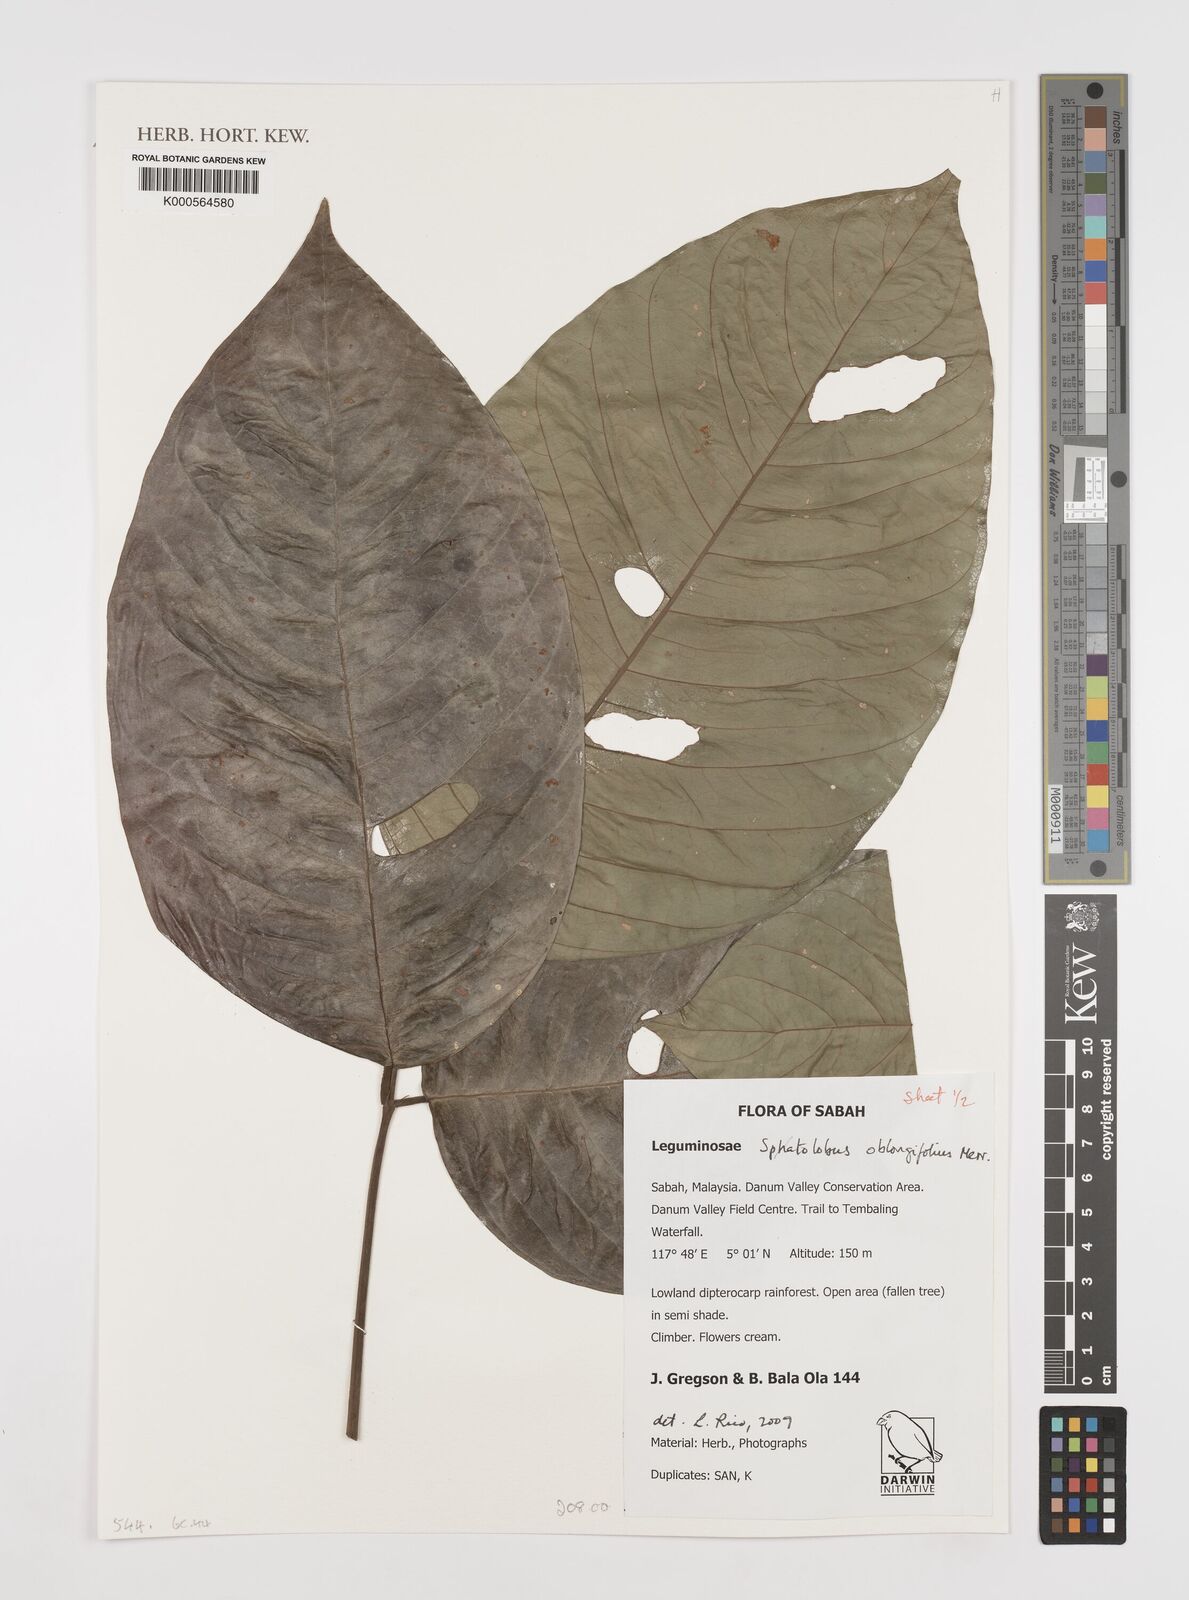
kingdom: Plantae
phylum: Tracheophyta
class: Magnoliopsida
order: Fabales
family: Fabaceae
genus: Spatholobus
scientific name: Spatholobus oblongifolius
